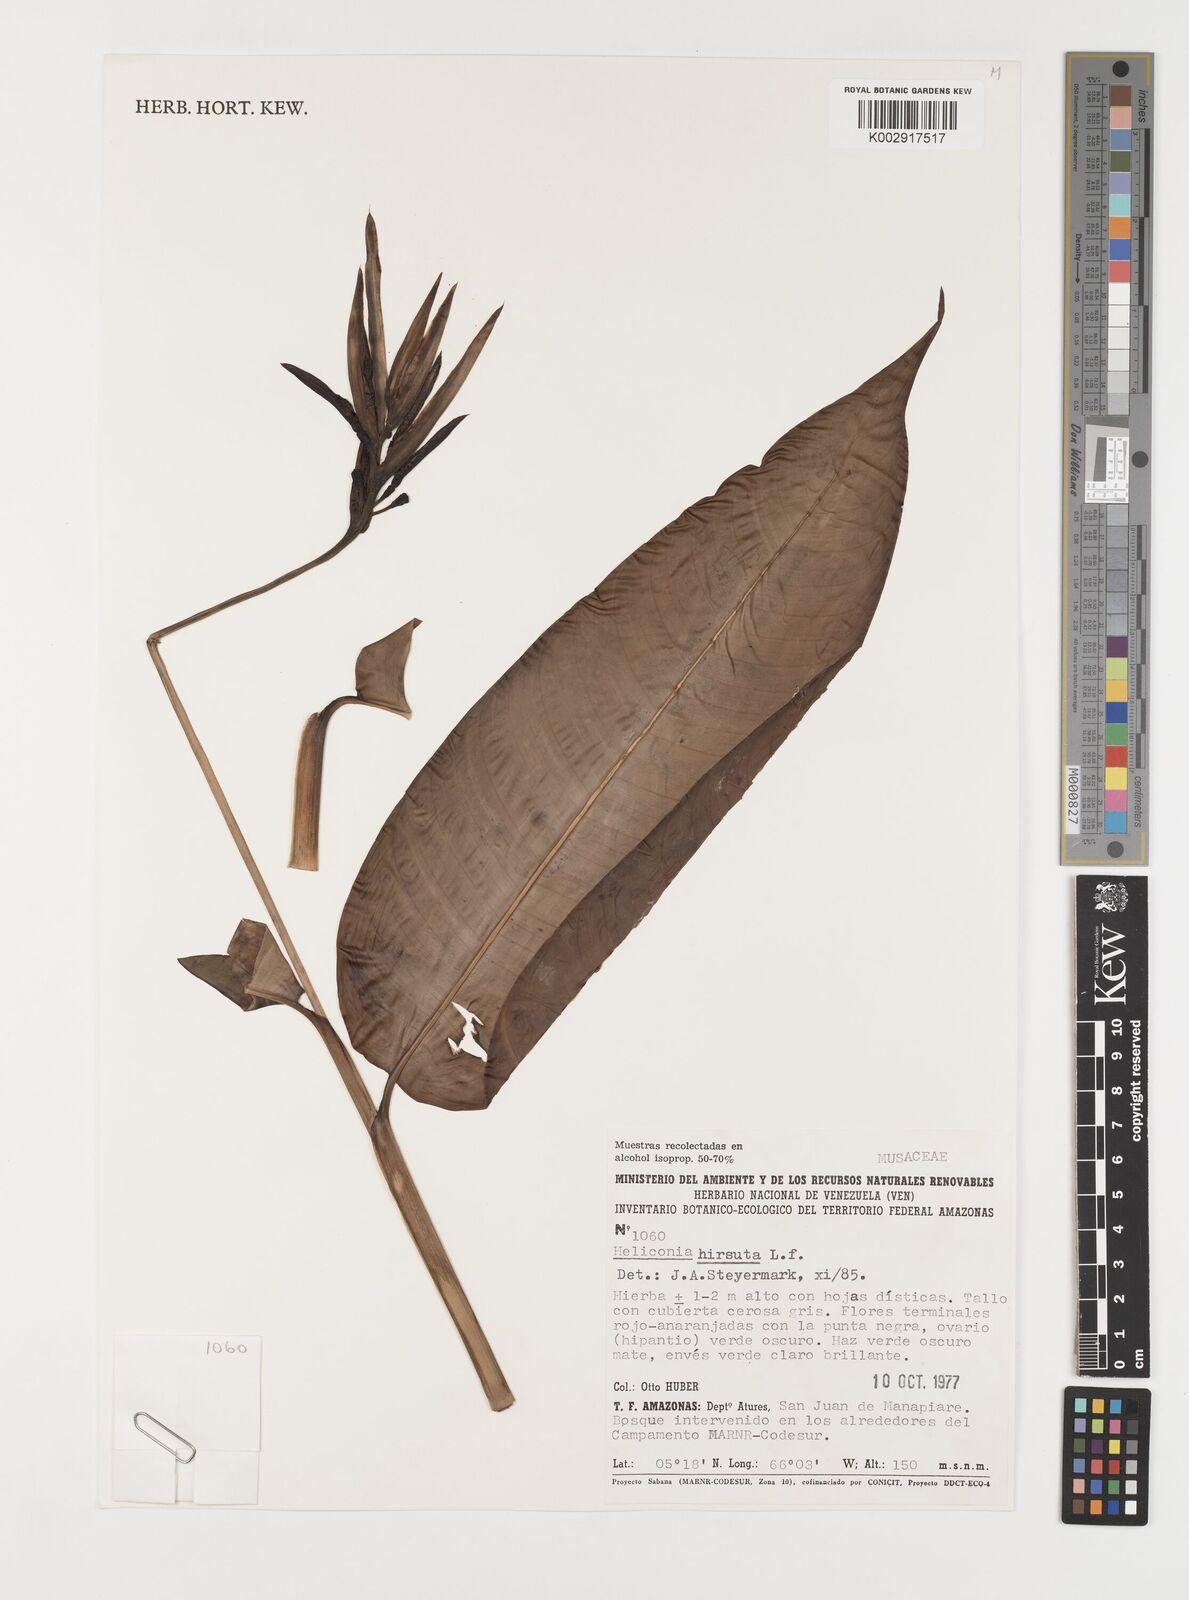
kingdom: Plantae
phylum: Tracheophyta
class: Liliopsida
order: Zingiberales
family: Heliconiaceae
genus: Heliconia
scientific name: Heliconia hirsuta
